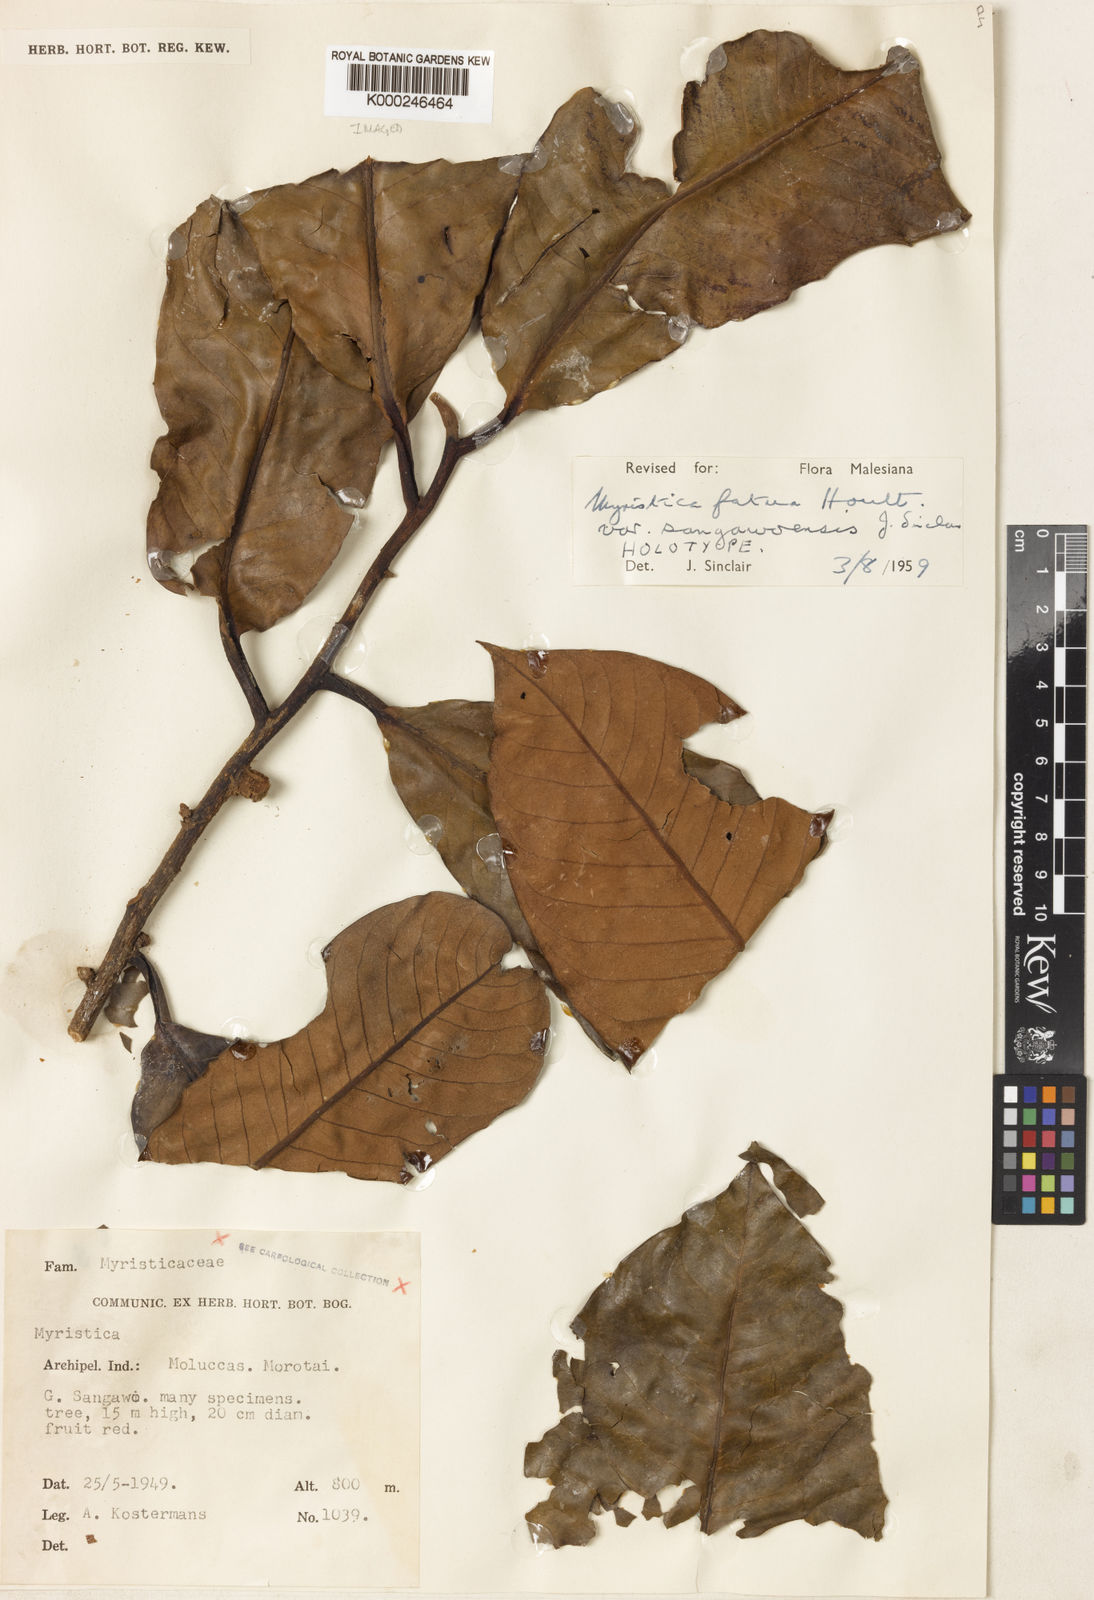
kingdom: Plantae
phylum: Tracheophyta
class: Magnoliopsida
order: Magnoliales
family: Myristicaceae
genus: Myristica
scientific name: Myristica fatua
